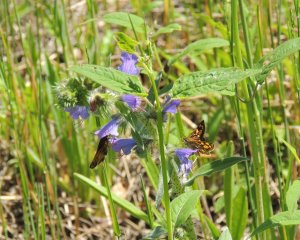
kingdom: Animalia
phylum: Arthropoda
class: Insecta
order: Lepidoptera
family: Hesperiidae
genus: Carterocephalus
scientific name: Carterocephalus palaemon
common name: Chequered Skipper
